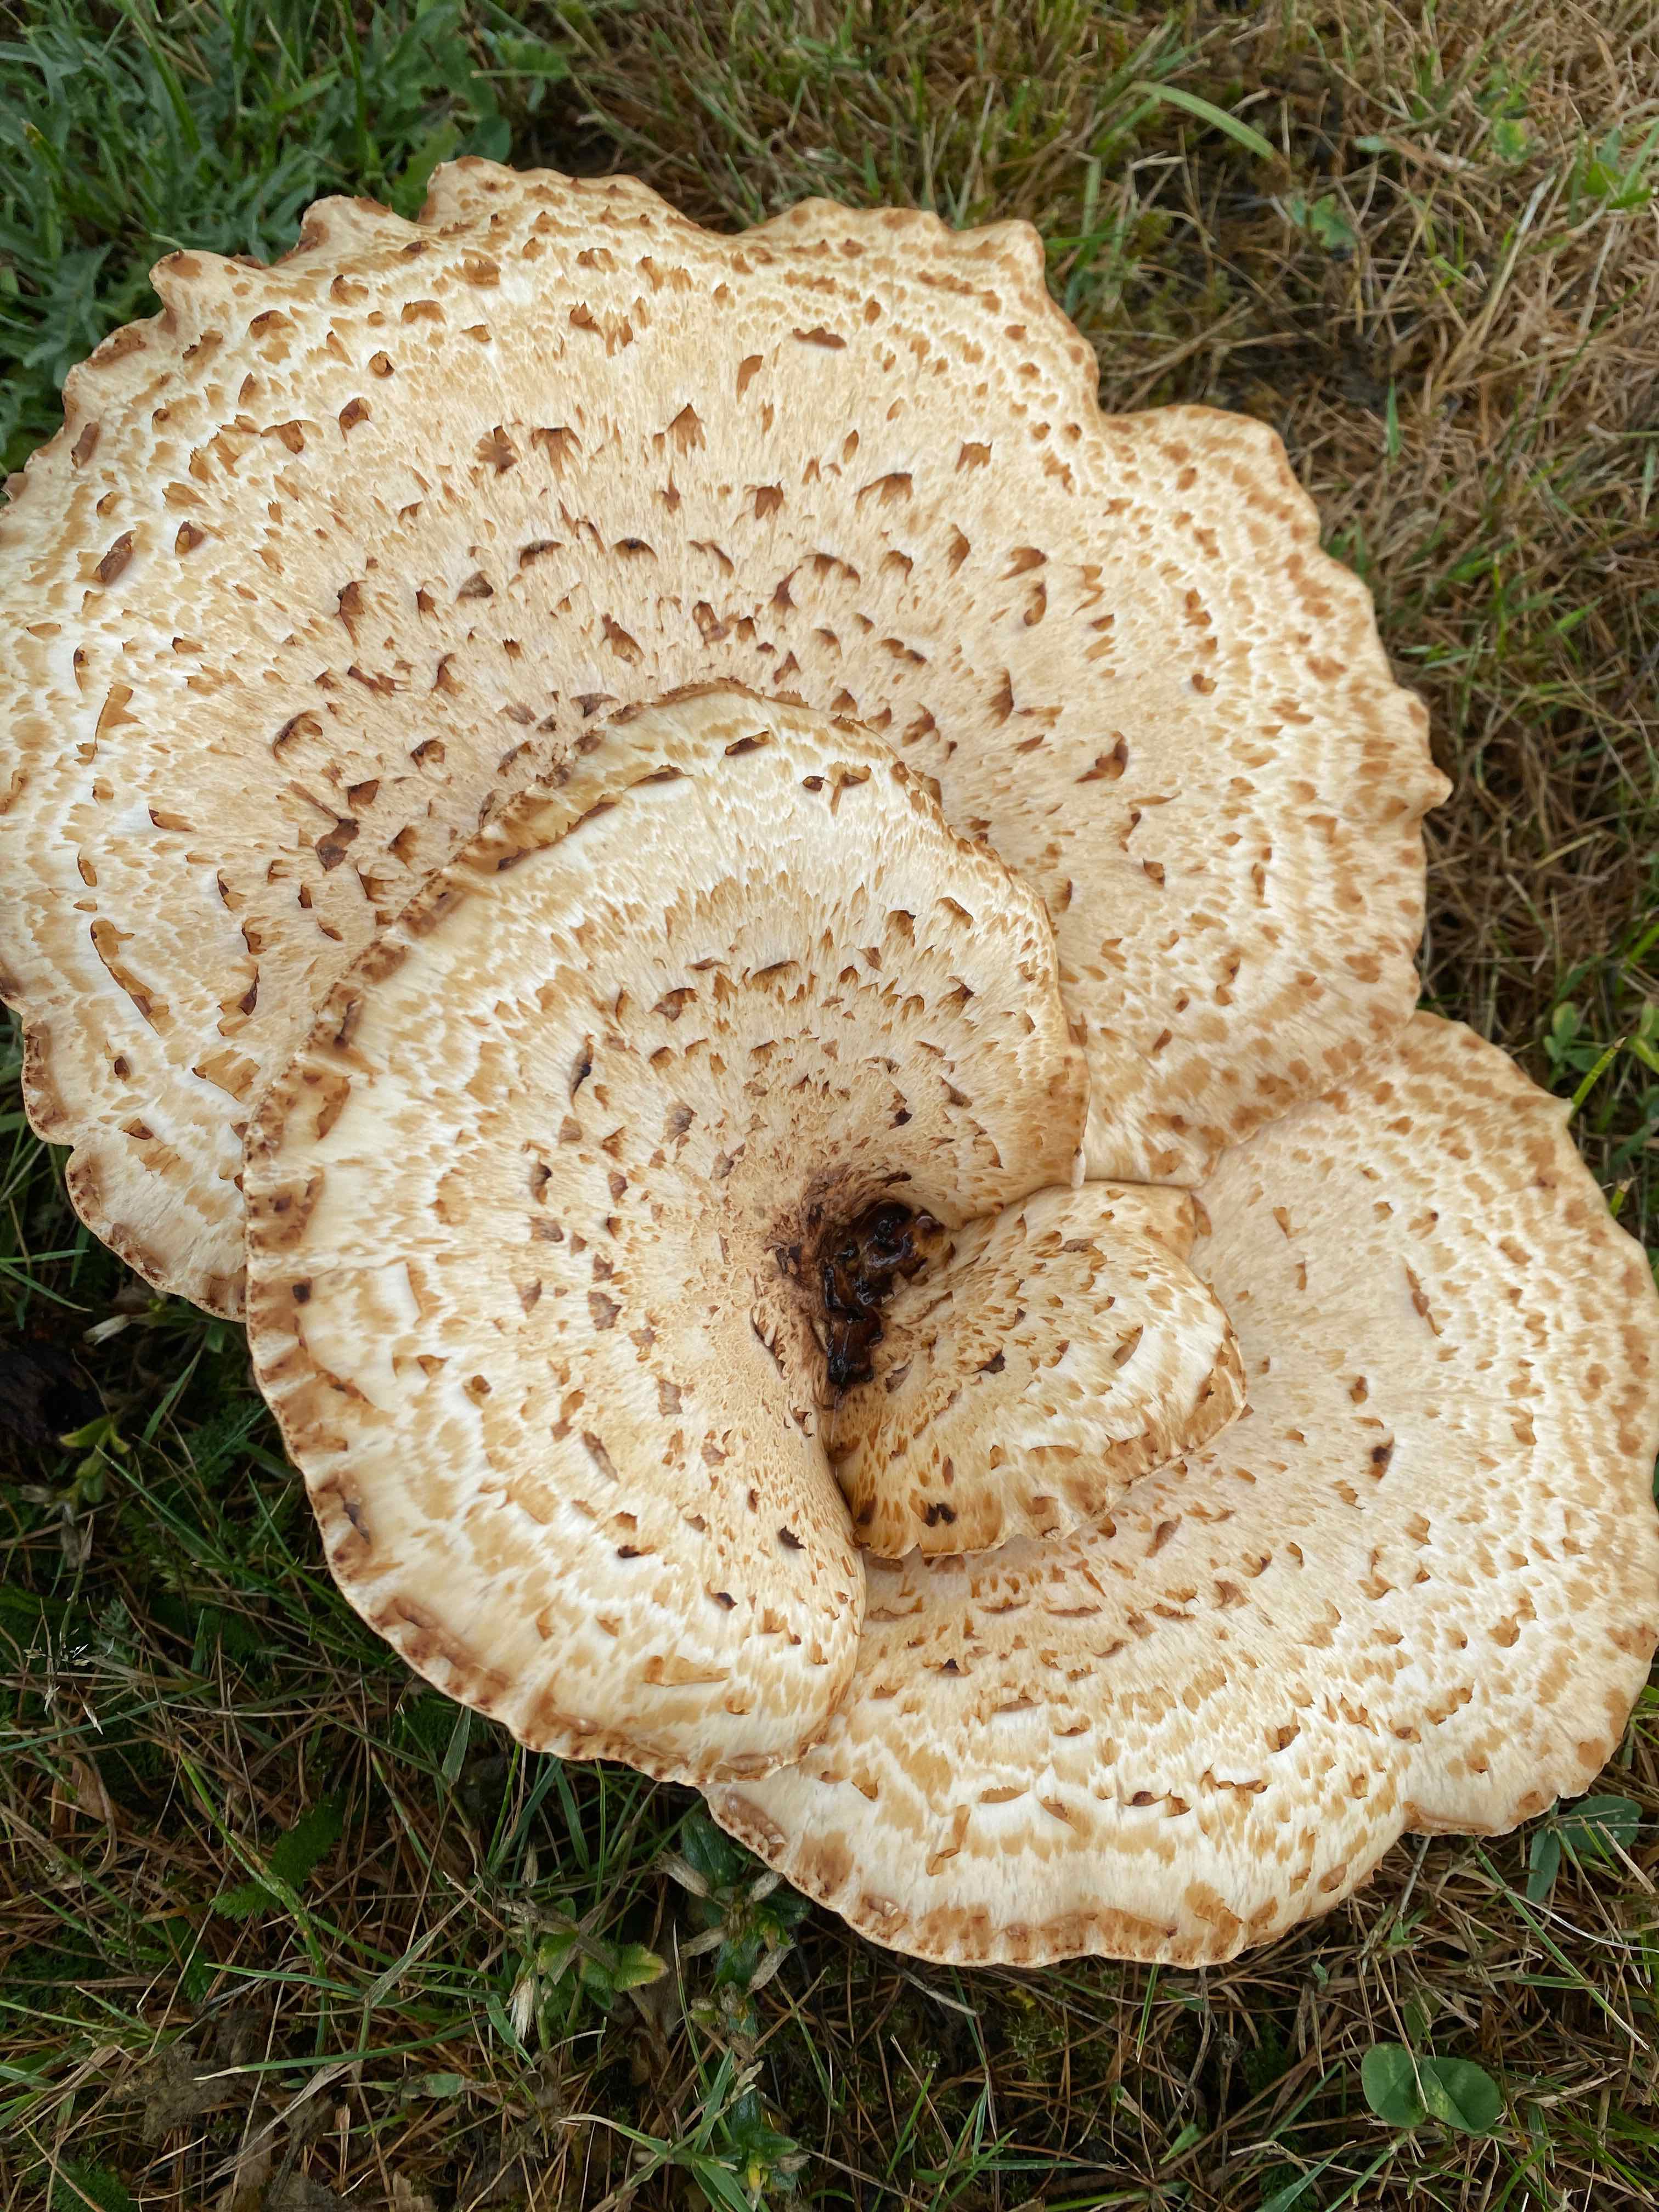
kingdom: Fungi
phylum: Basidiomycota
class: Agaricomycetes
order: Polyporales
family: Polyporaceae
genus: Cerioporus
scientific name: Cerioporus squamosus
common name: skællet stilkporesvamp
